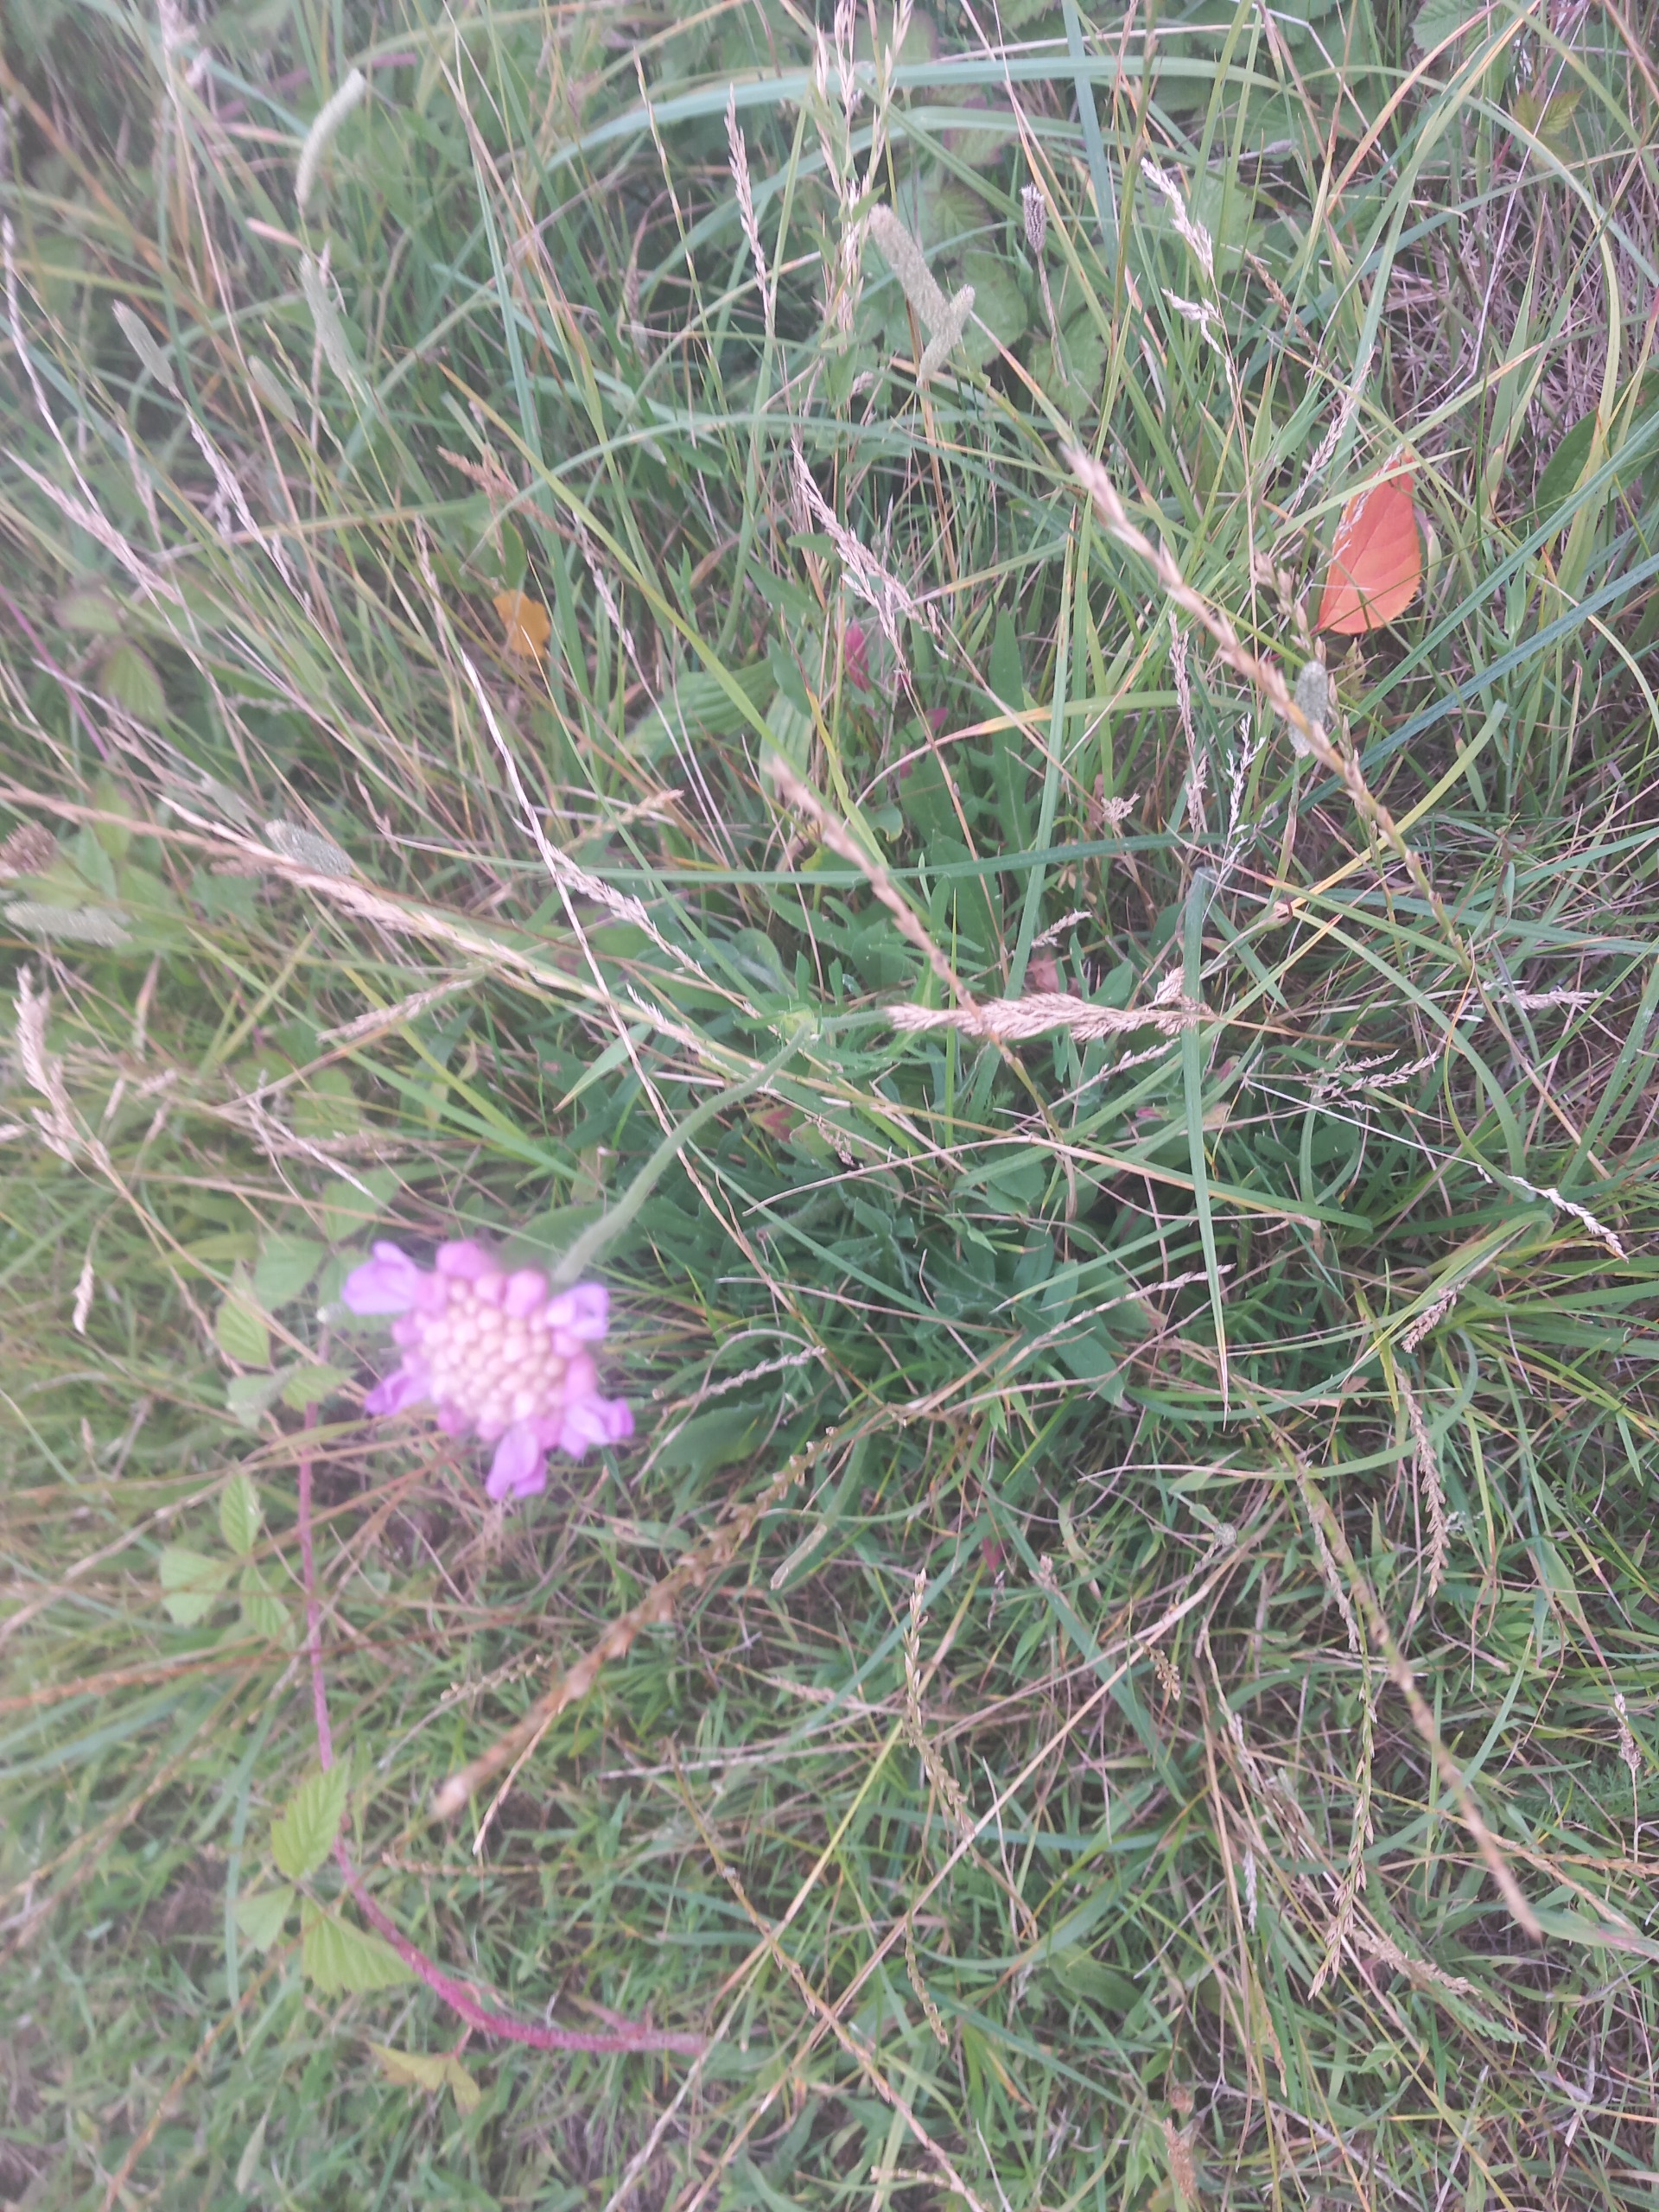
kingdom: Plantae
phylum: Tracheophyta
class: Magnoliopsida
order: Dipsacales
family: Caprifoliaceae
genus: Knautia
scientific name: Knautia arvensis
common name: Blåhat
